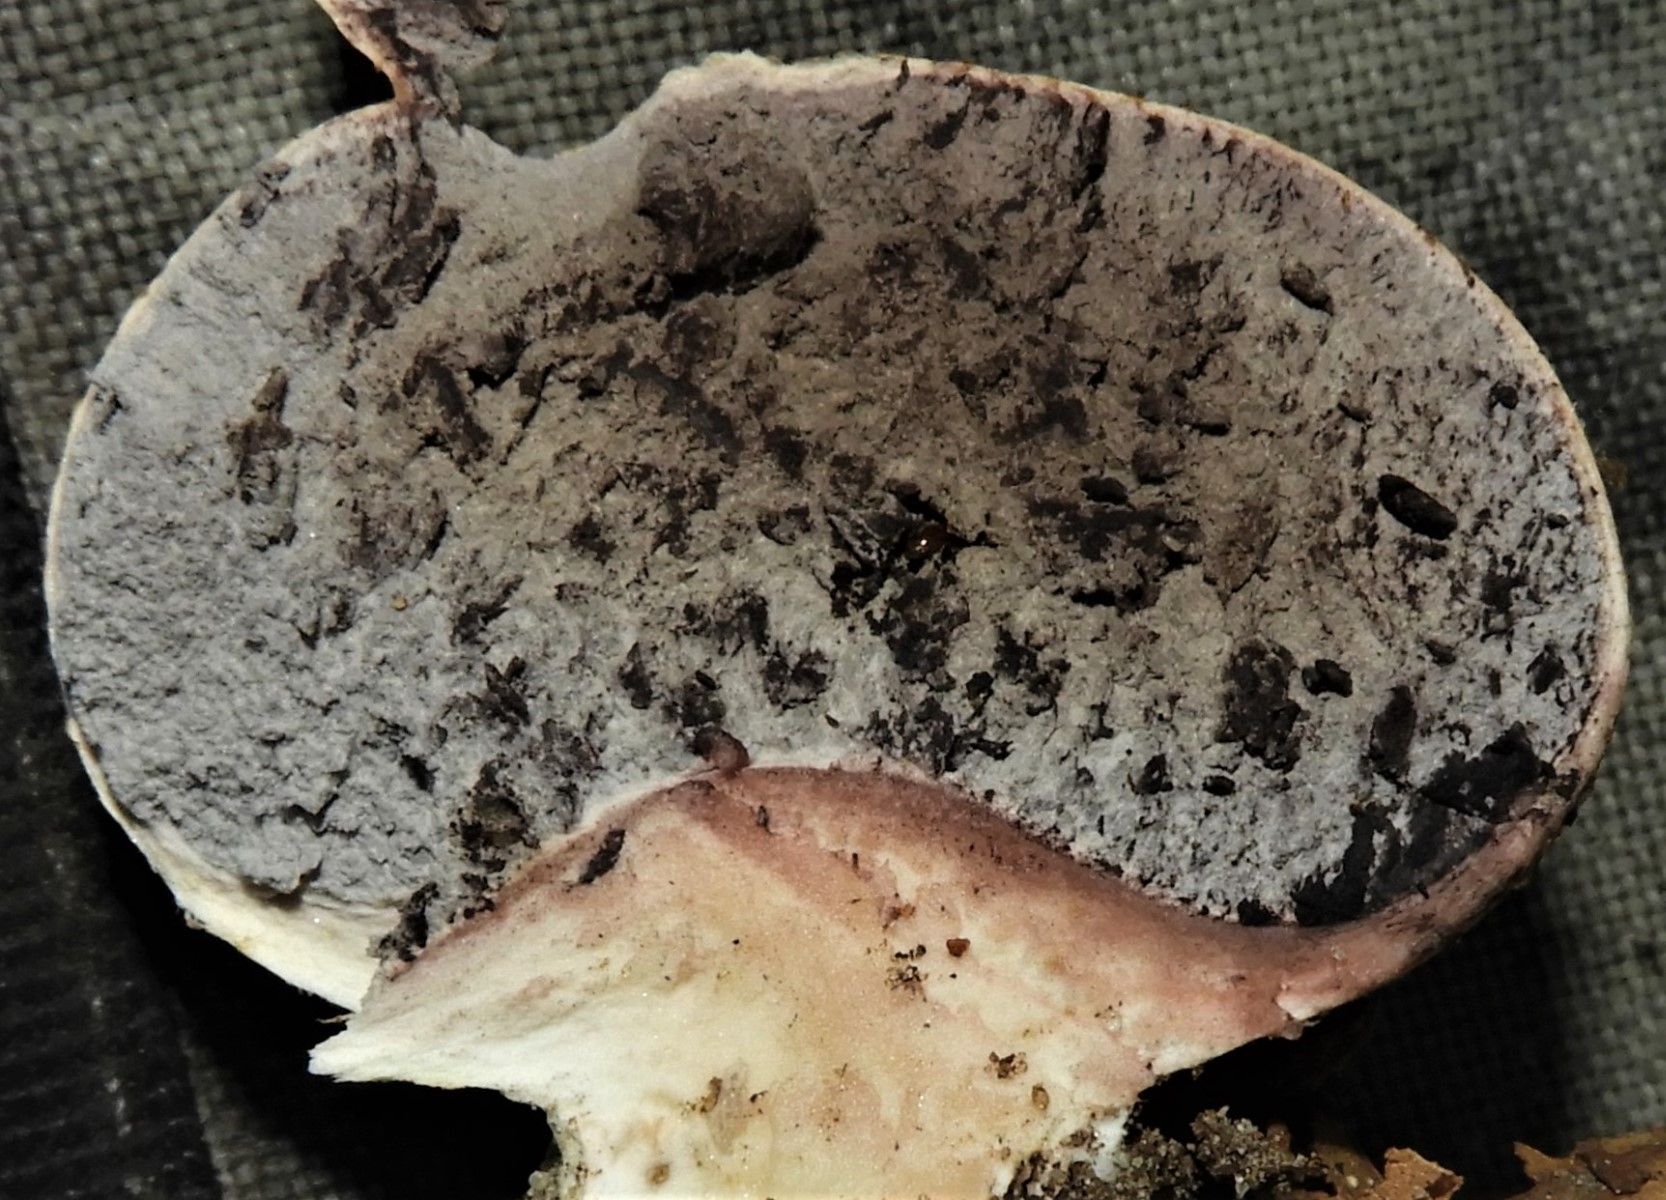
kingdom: Fungi
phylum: Basidiomycota
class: Agaricomycetes
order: Boletales
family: Sclerodermataceae
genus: Scleroderma
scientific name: Scleroderma citrinum
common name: almindelig bruskbold
